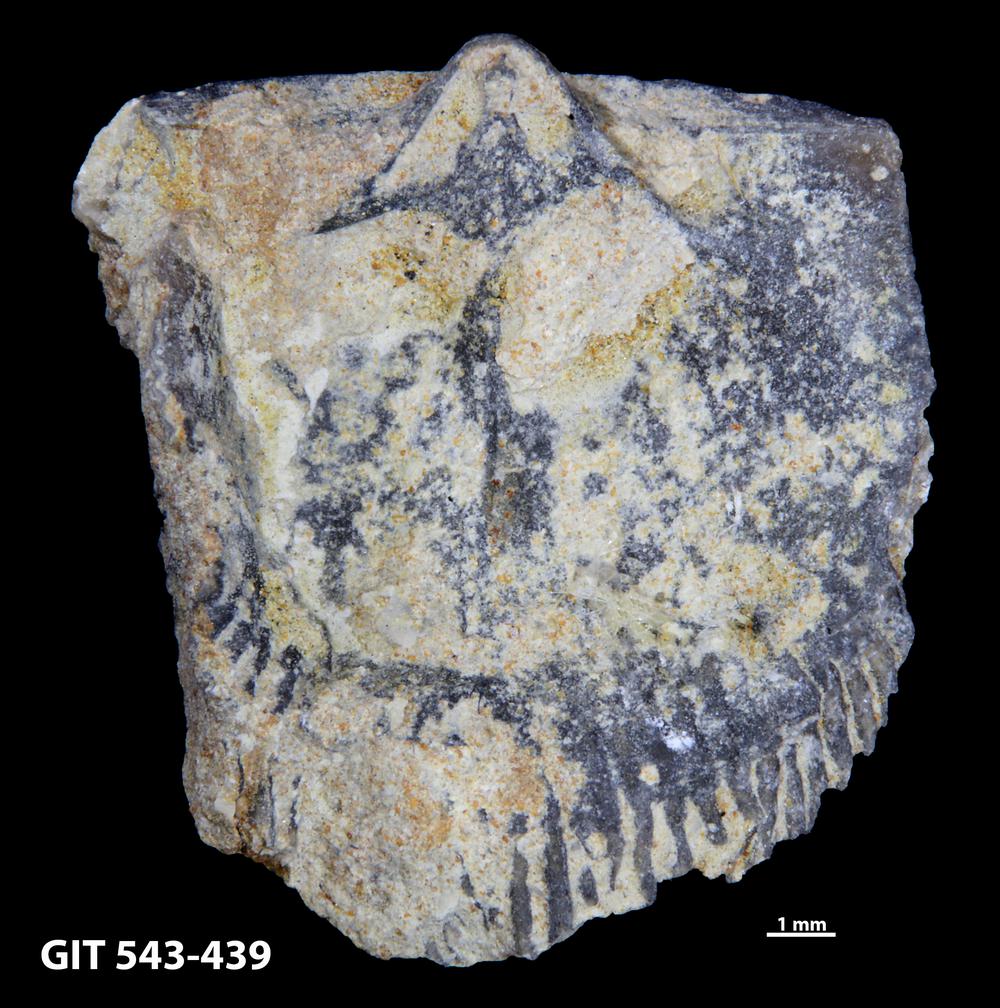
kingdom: Animalia
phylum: Brachiopoda
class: Rhynchonellata
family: Clitambonitidae
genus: Clitambonites
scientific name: Clitambonites Orthisina schmidti
